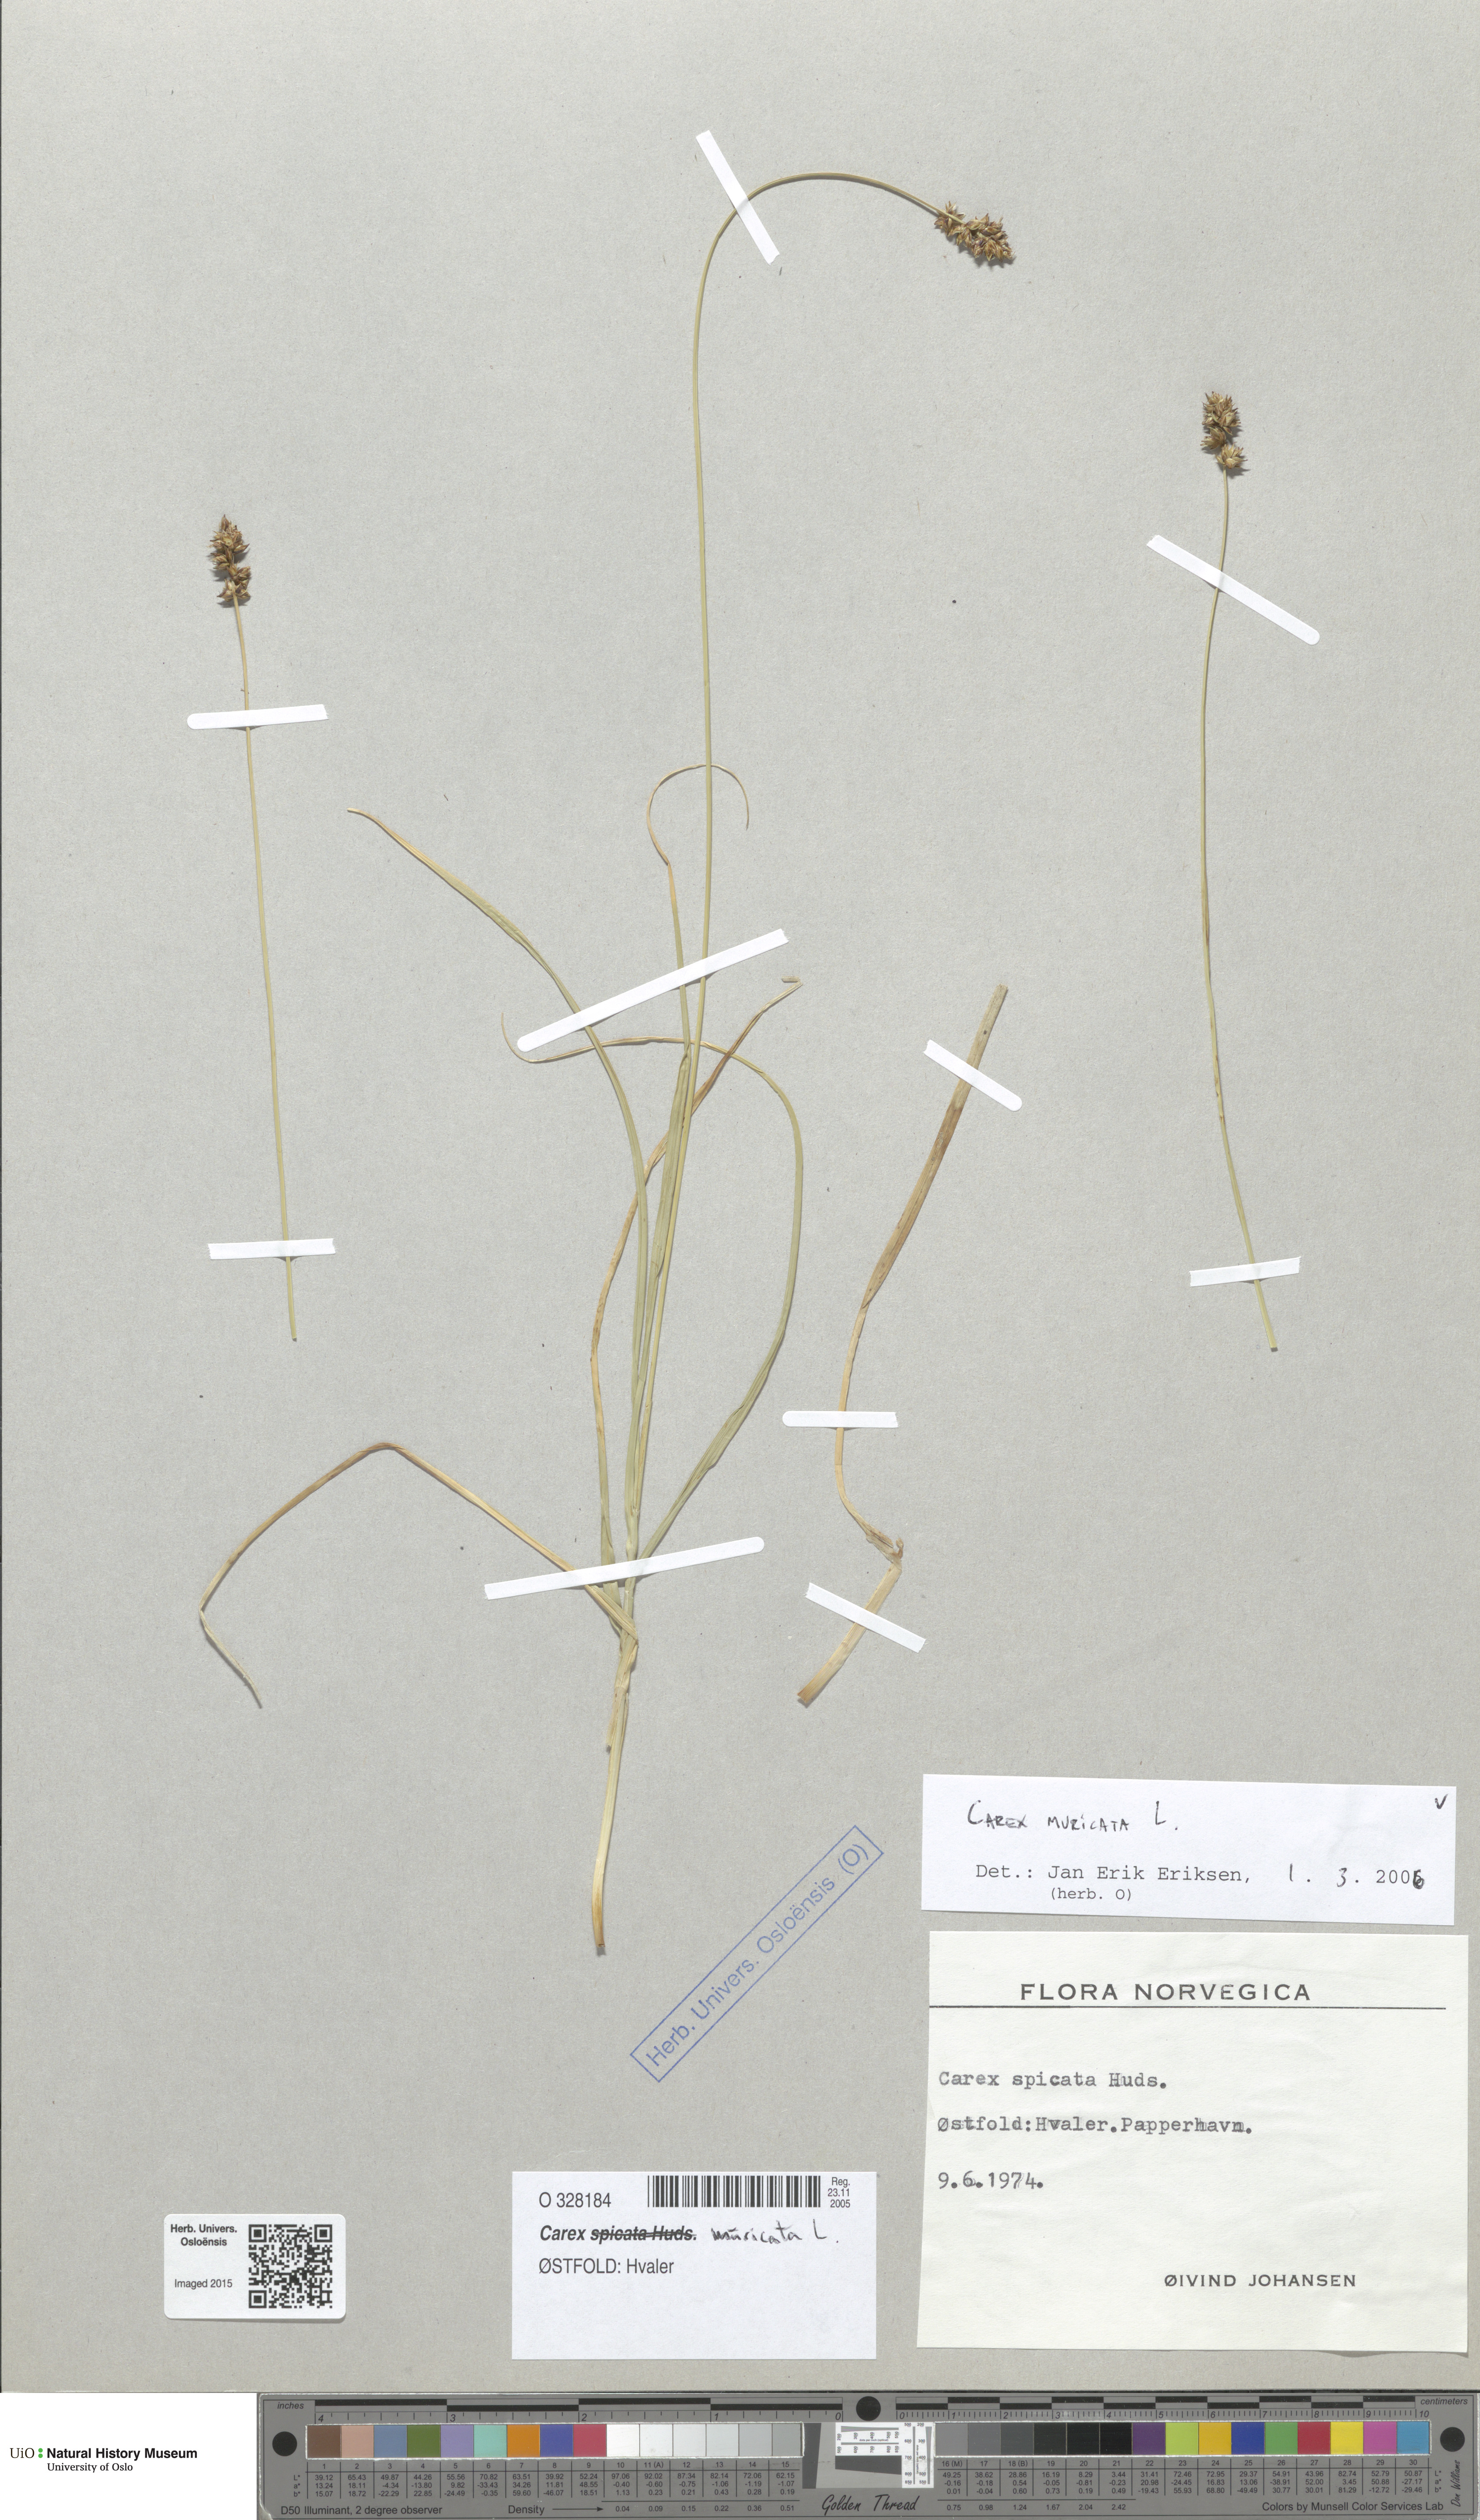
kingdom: Plantae
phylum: Tracheophyta
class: Liliopsida
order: Poales
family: Cyperaceae
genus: Carex
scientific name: Carex muricata
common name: Rough sedge
